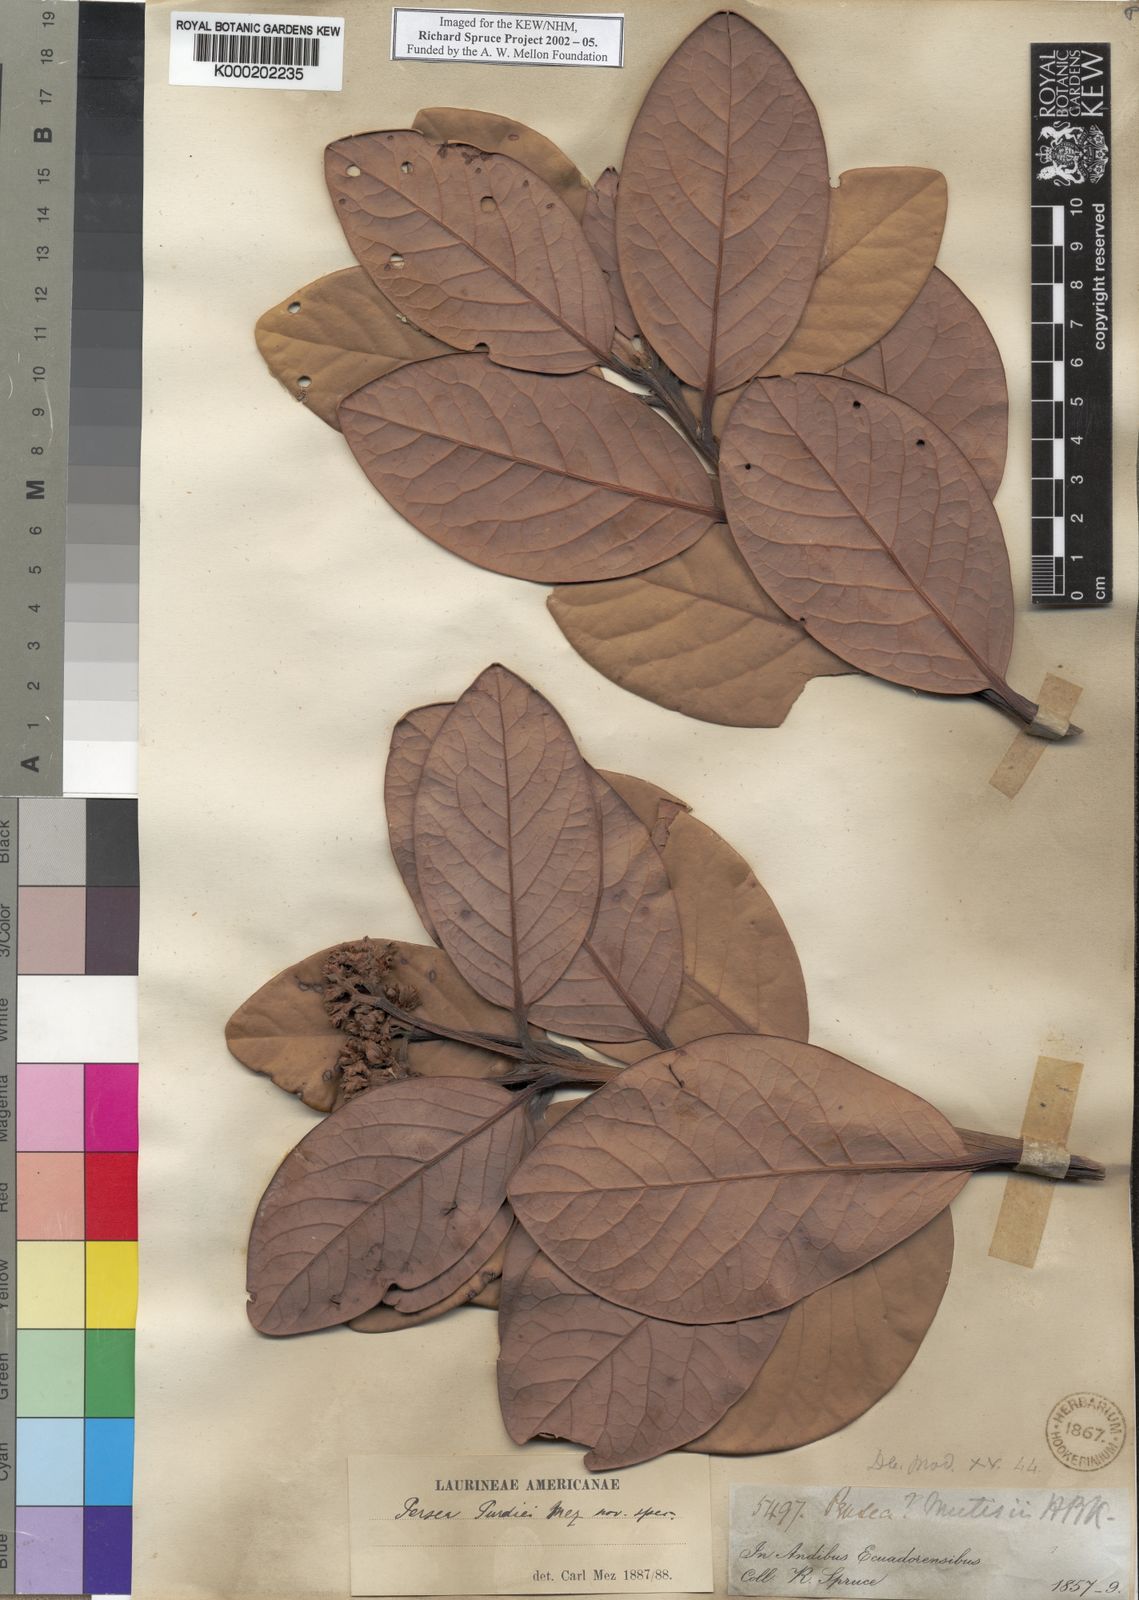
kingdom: Plantae
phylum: Tracheophyta
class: Magnoliopsida
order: Laurales
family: Lauraceae
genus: Persea
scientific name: Persea mutisii
